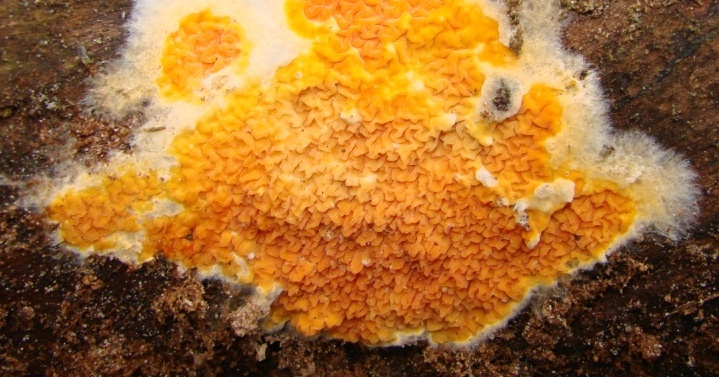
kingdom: Fungi
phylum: Basidiomycota
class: Agaricomycetes
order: Boletales
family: Hygrophoropsidaceae
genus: Leucogyrophana
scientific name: Leucogyrophana mollusca
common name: blød hussvamp
